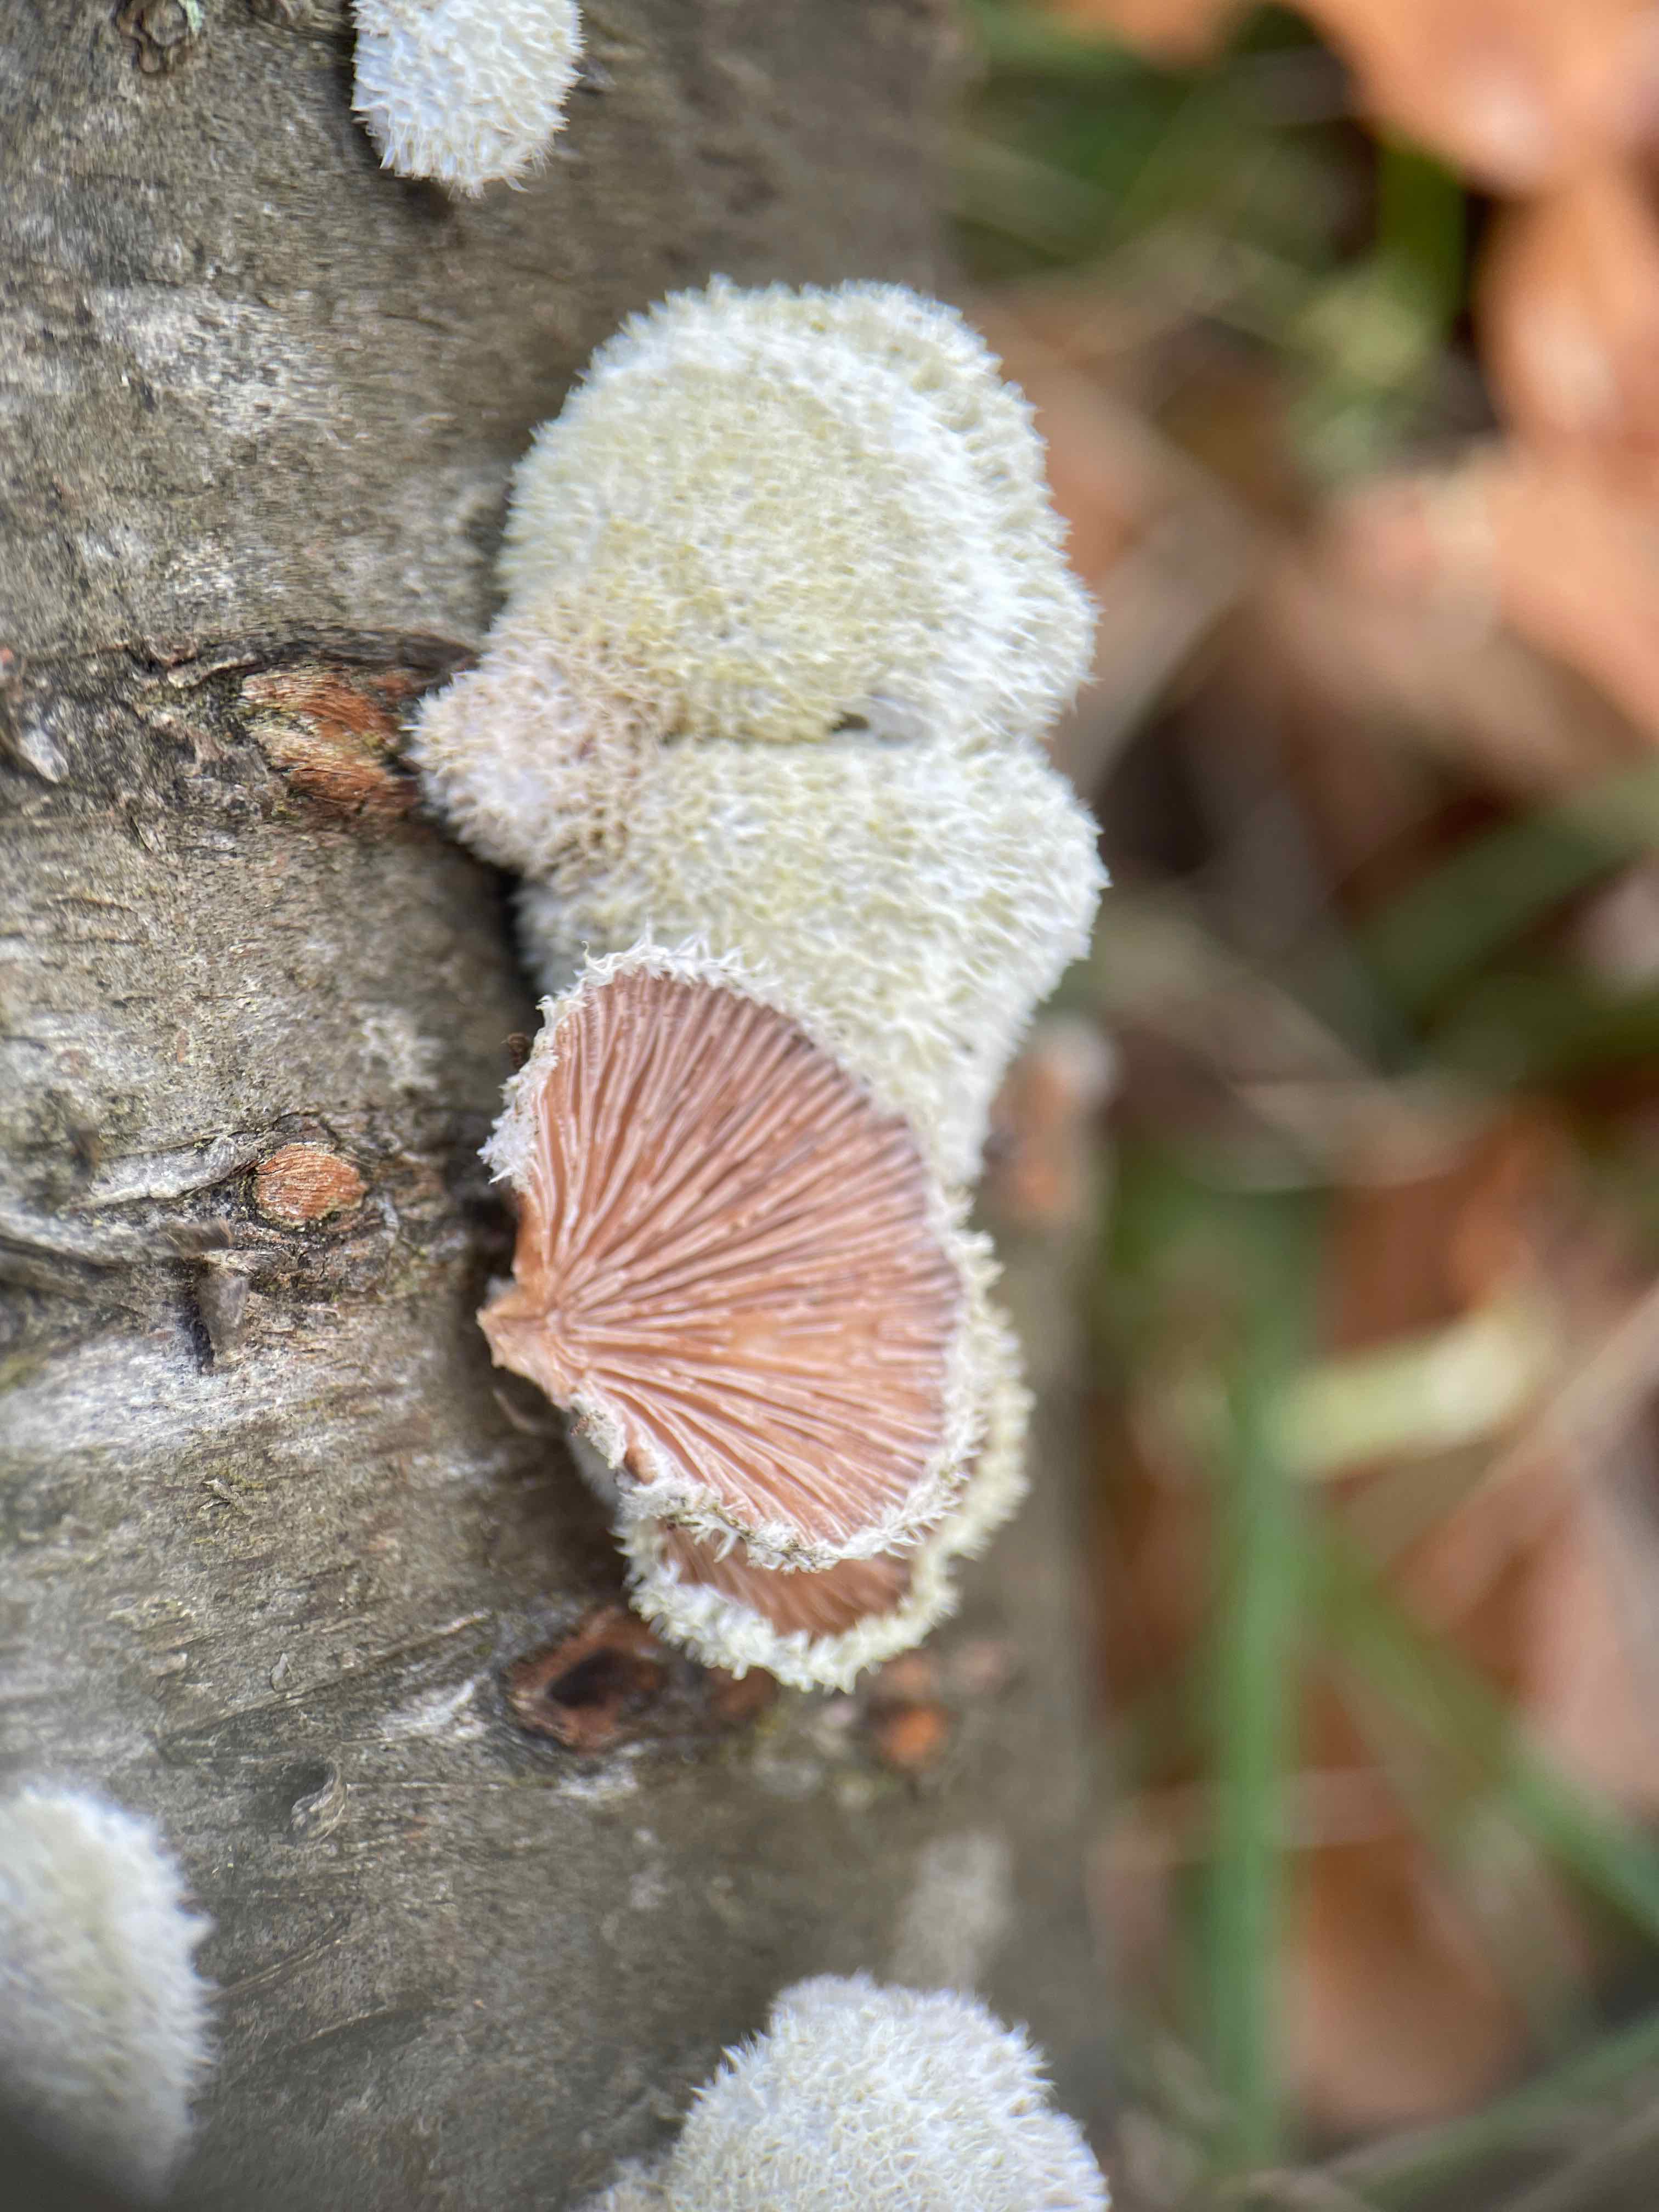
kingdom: Fungi
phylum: Basidiomycota
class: Agaricomycetes
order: Agaricales
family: Schizophyllaceae
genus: Schizophyllum
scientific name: Schizophyllum commune
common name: kløvblad
